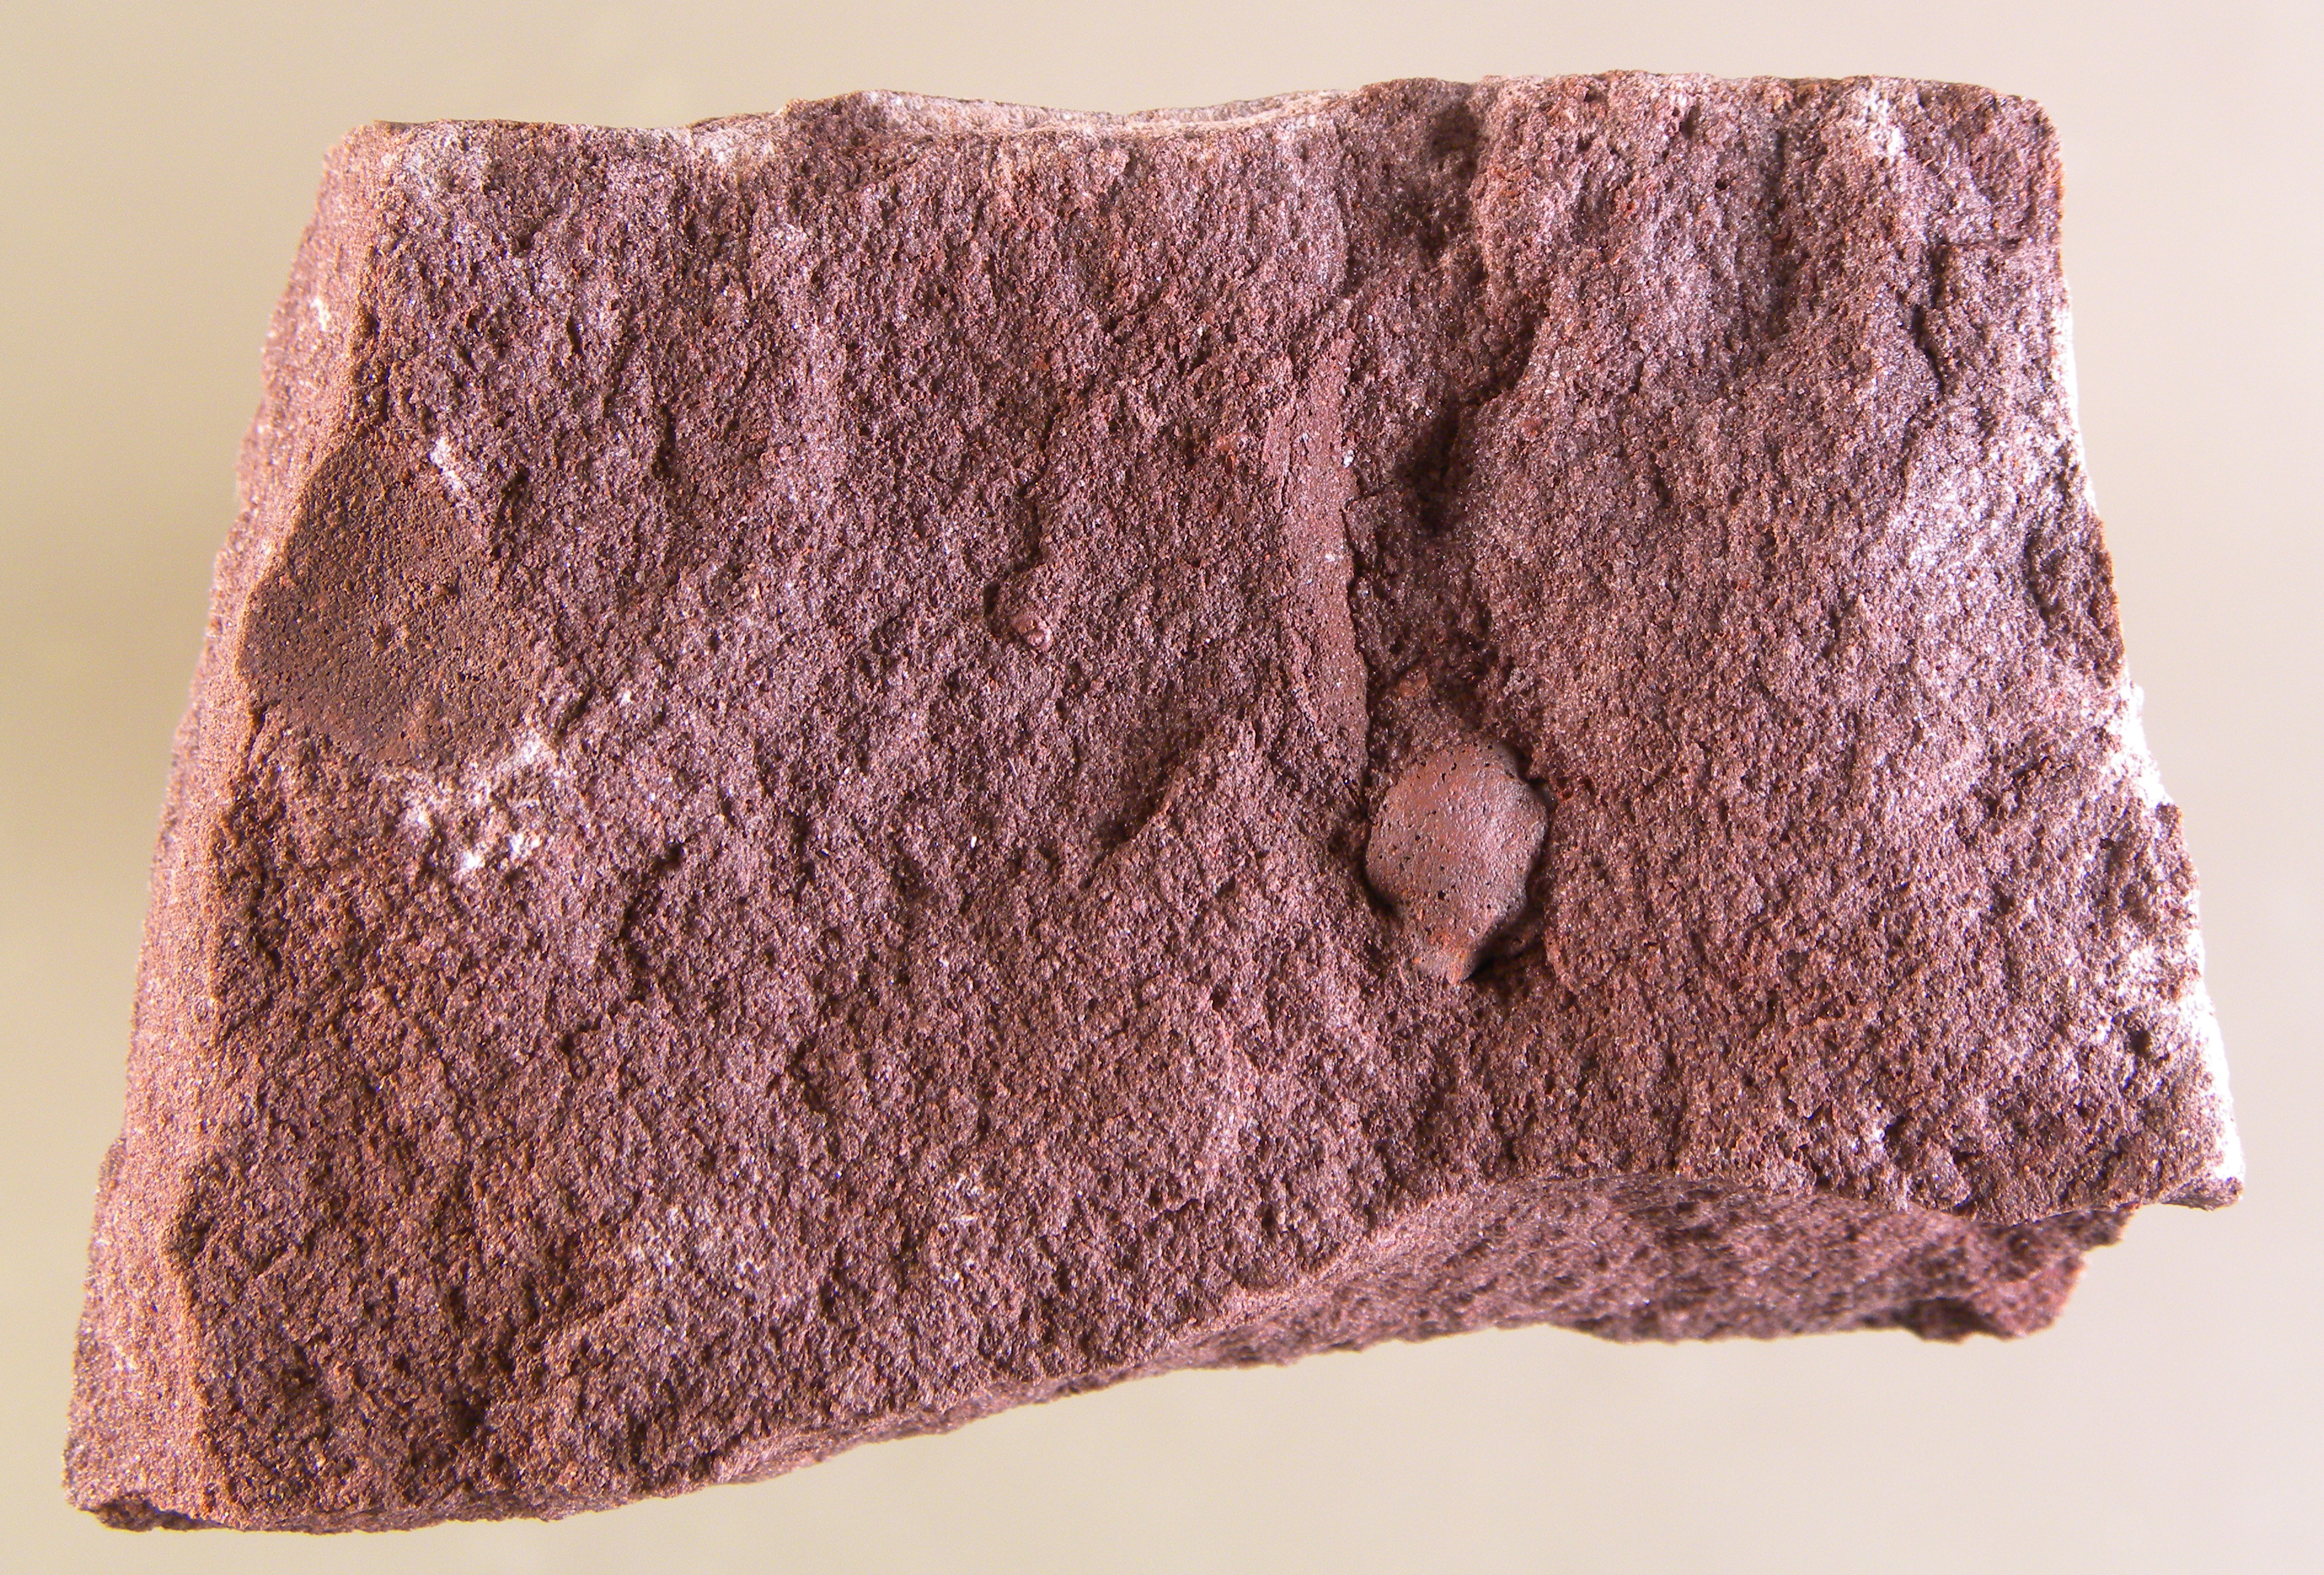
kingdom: Animalia
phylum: Arthropoda
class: Trilobita
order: Phacopida
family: Acastidae
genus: Acastava
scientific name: Acastava
